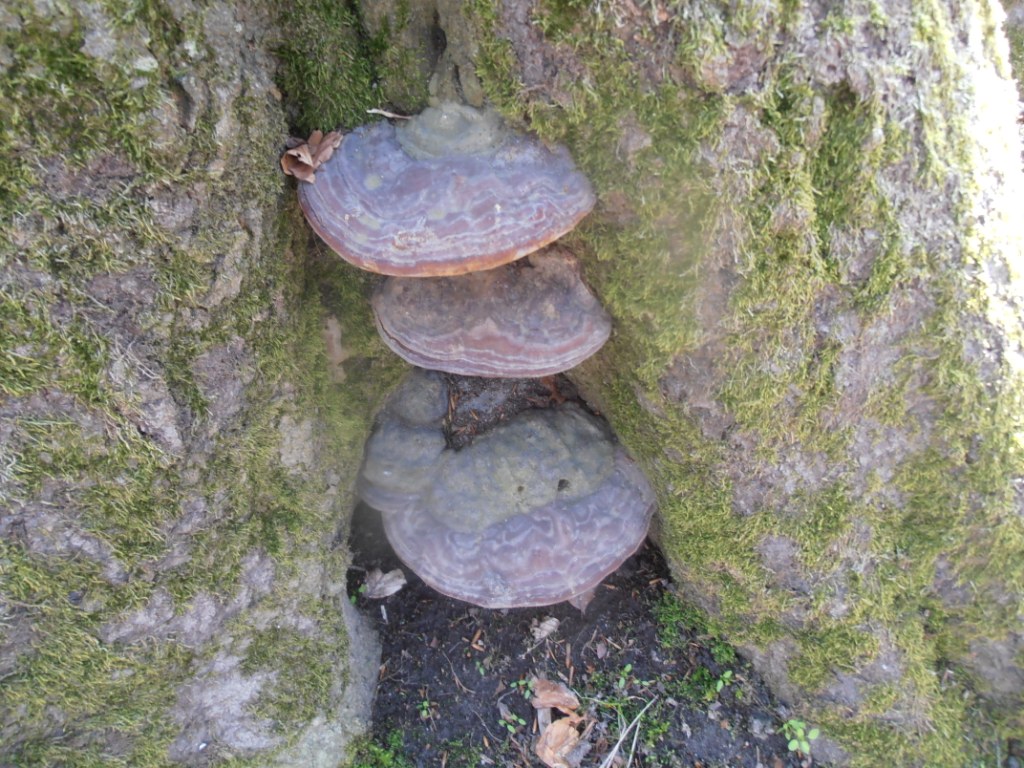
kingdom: Fungi
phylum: Basidiomycota
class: Agaricomycetes
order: Polyporales
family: Polyporaceae
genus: Ganoderma
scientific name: Ganoderma pfeifferi
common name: kobberrød lakporesvamp
